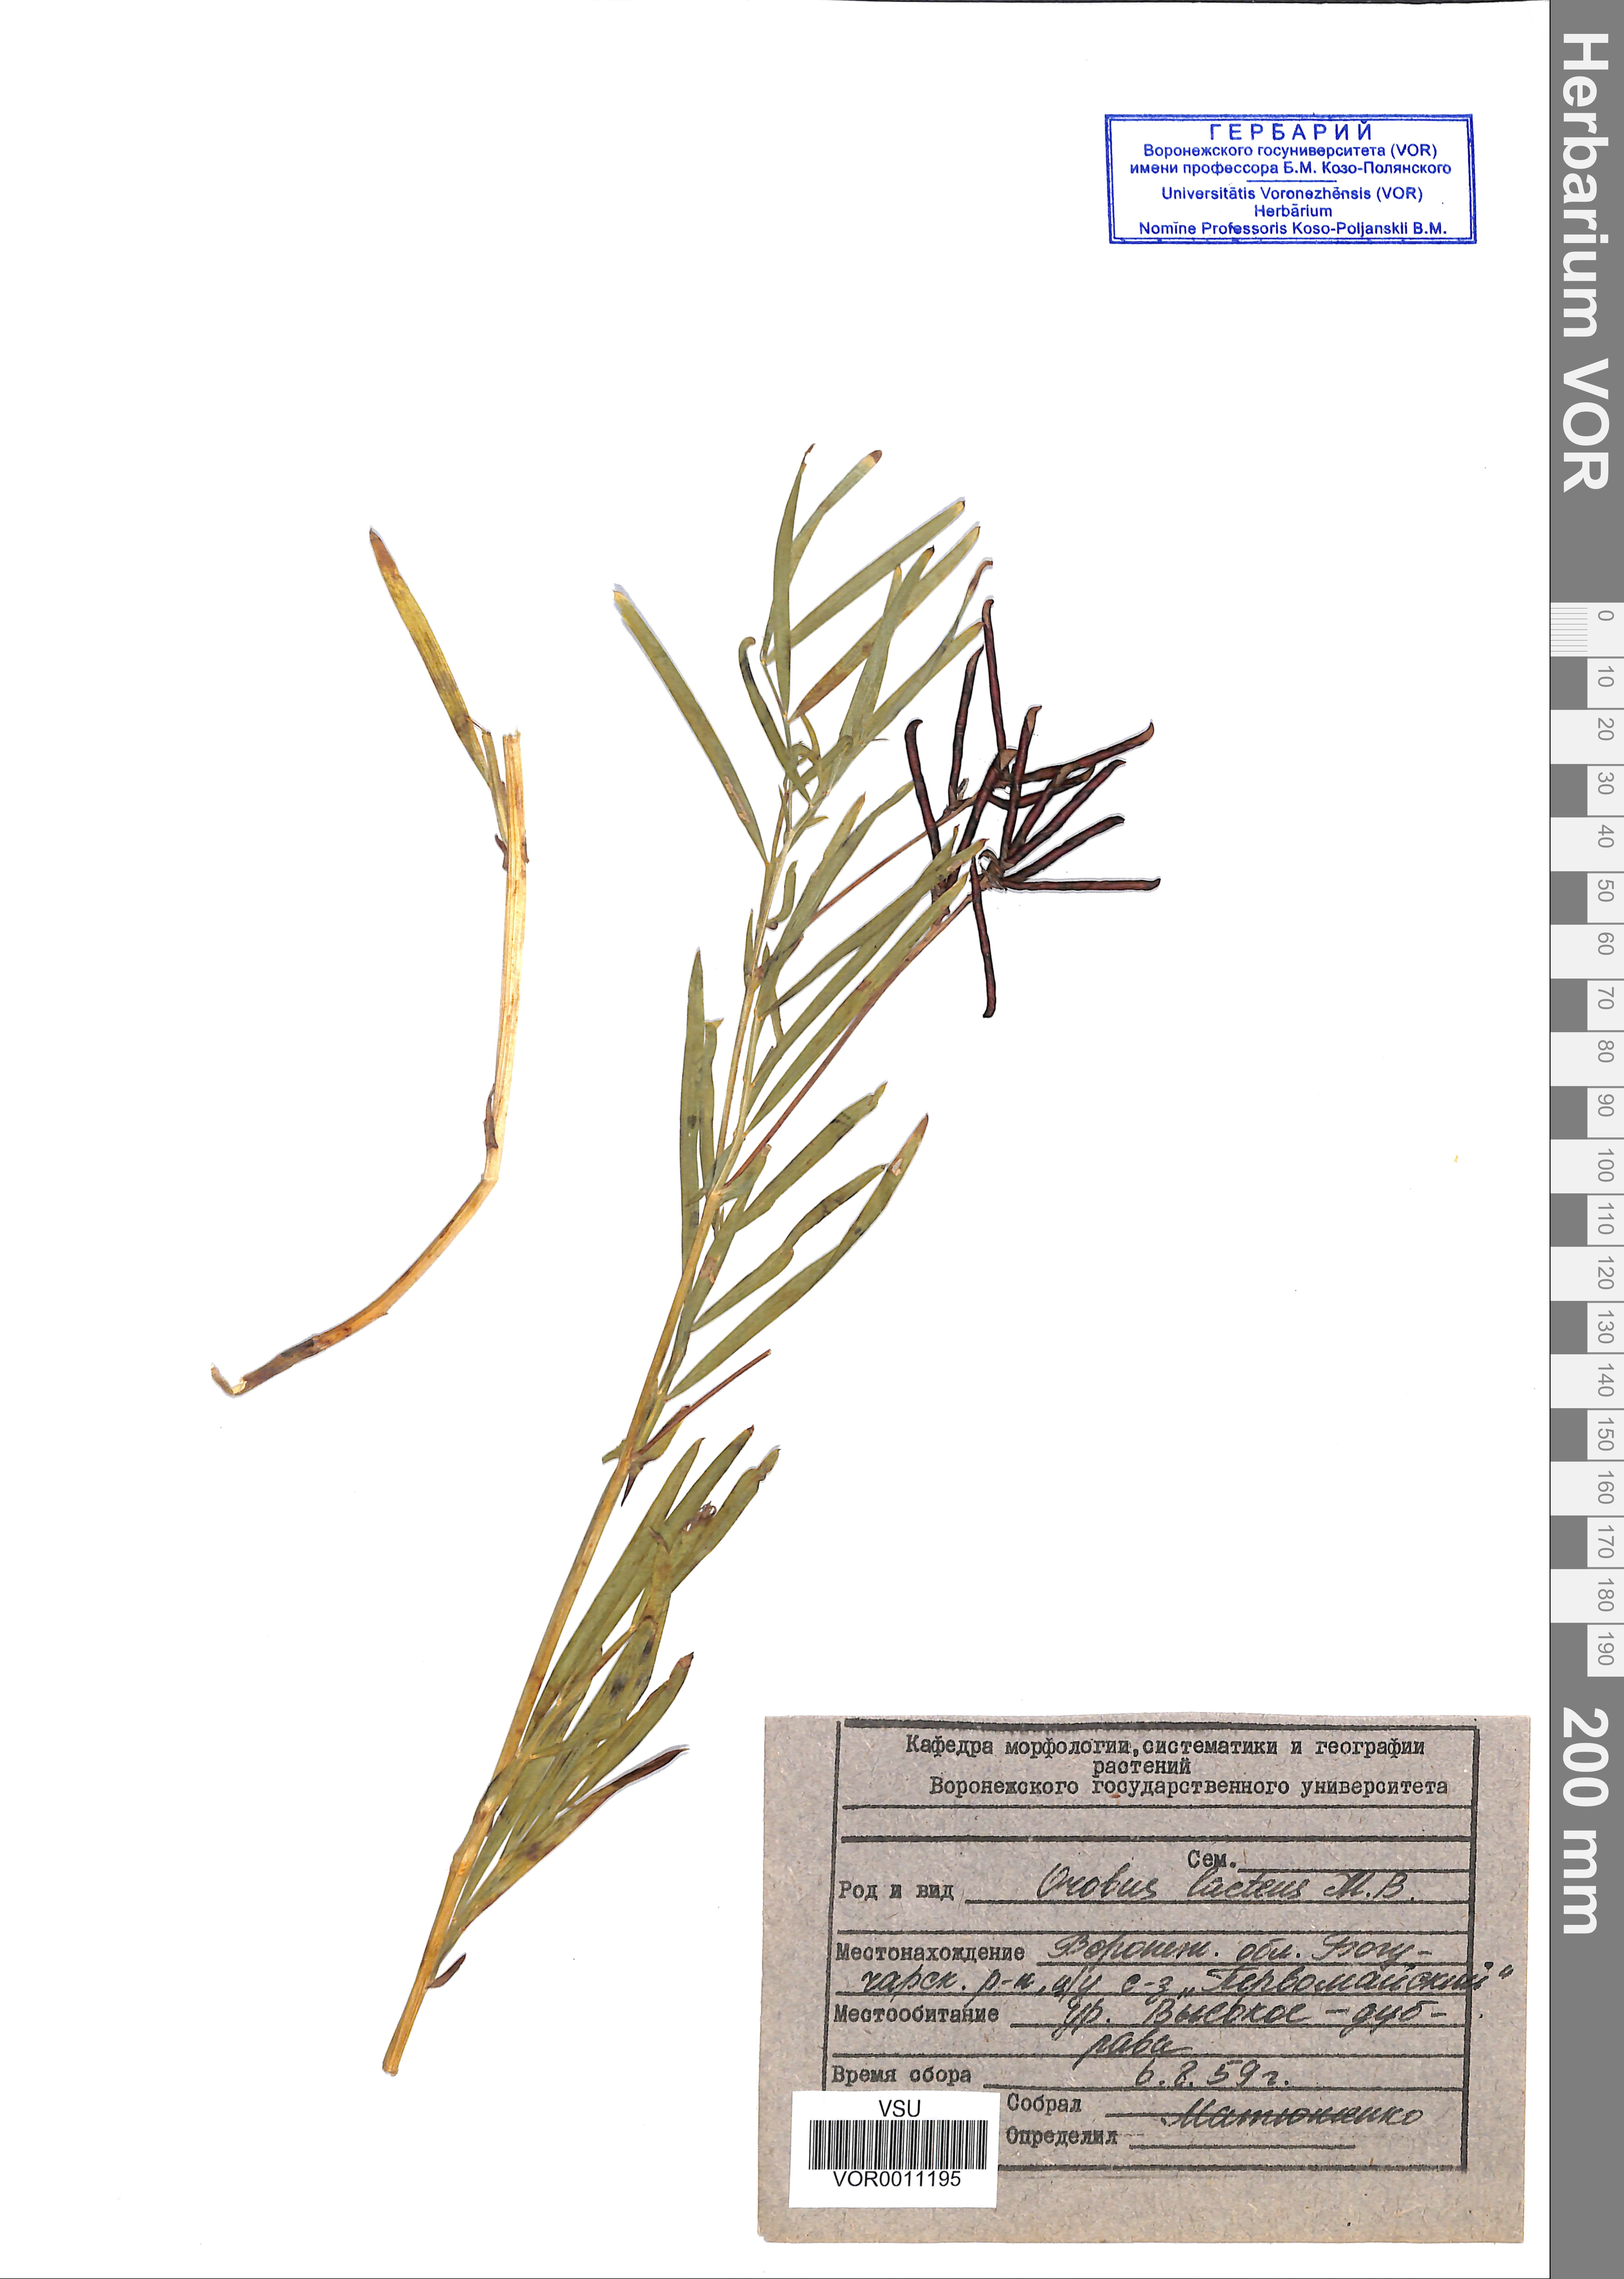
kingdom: Plantae
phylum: Tracheophyta
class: Magnoliopsida
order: Fabales
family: Fabaceae
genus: Lathyrus
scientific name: Lathyrus pannonicus
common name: Pea
